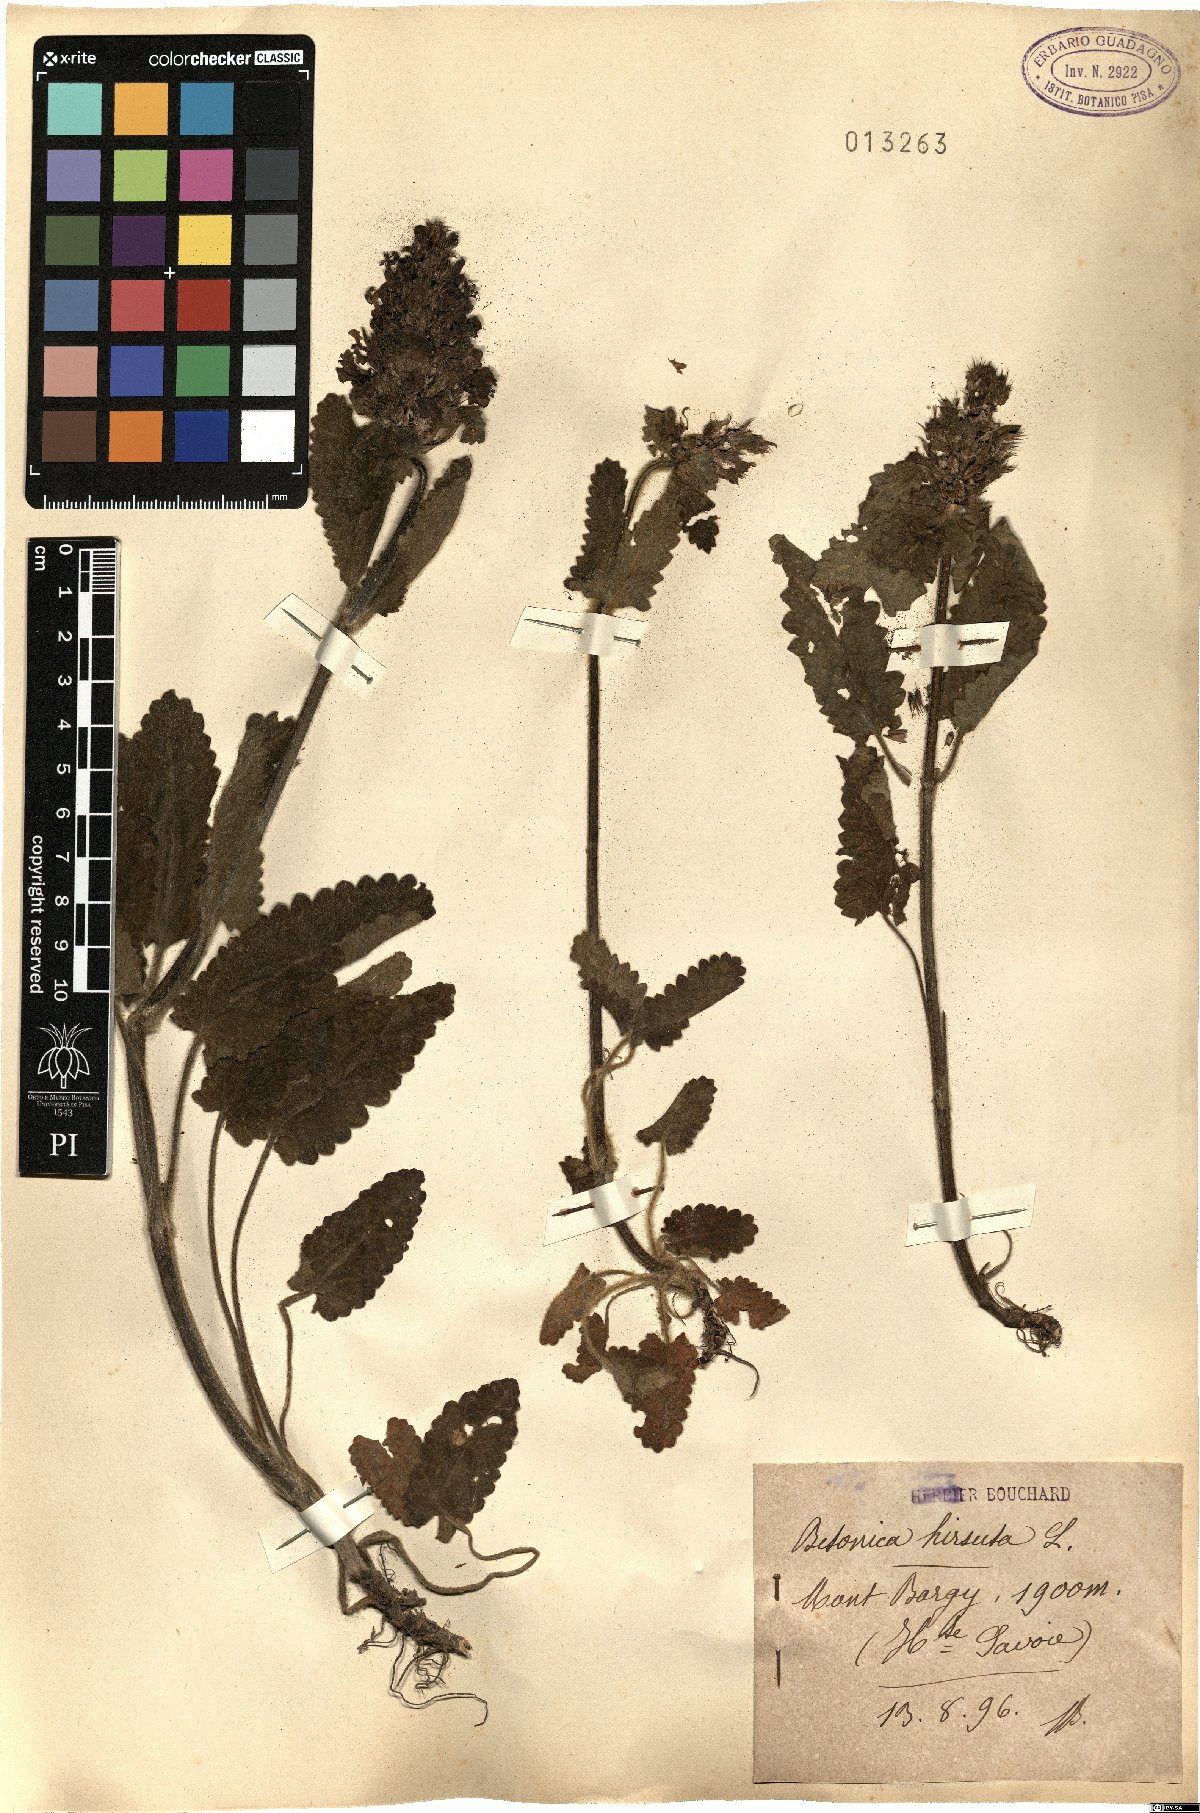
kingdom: Plantae
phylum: Tracheophyta
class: Magnoliopsida
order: Lamiales
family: Lamiaceae
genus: Betonica
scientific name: Betonica hirsuta
